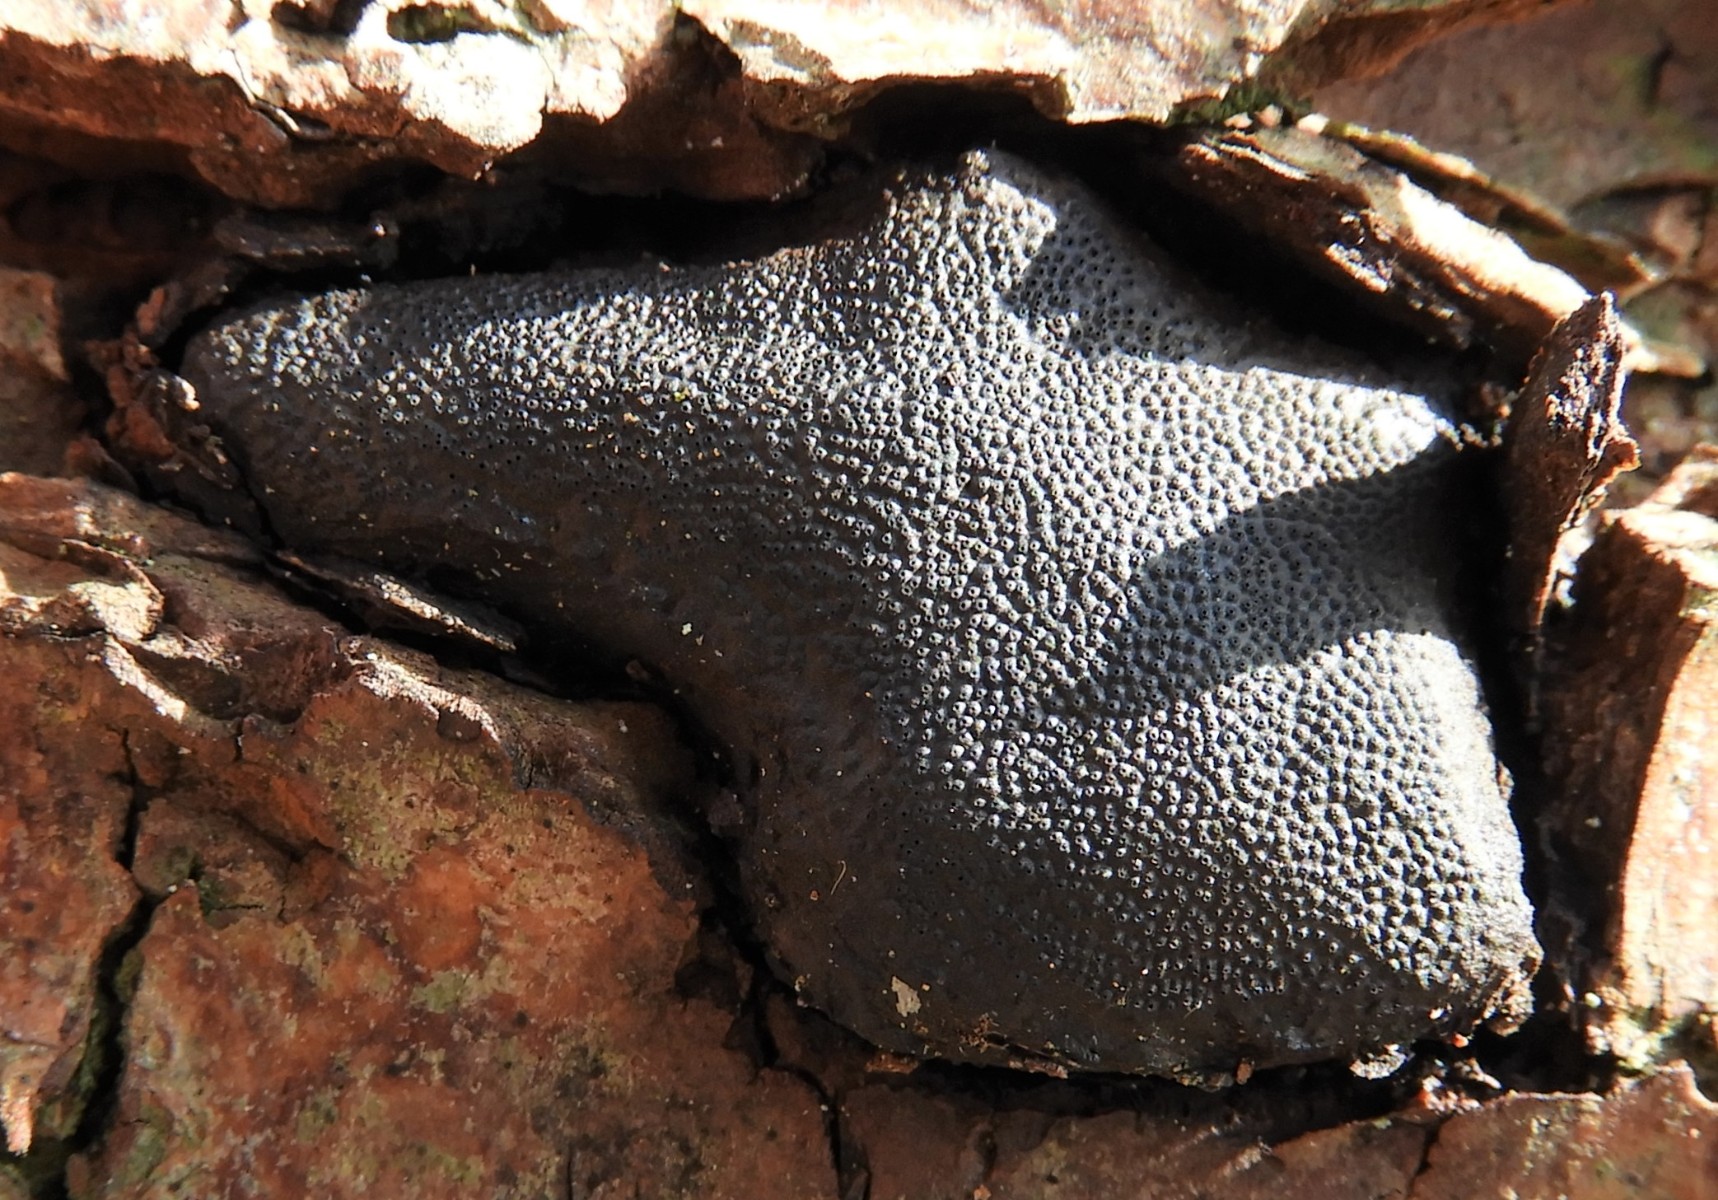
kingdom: Fungi
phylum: Ascomycota
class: Sordariomycetes
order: Boliniales
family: Boliniaceae
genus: Camarops
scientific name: Camarops polysperma
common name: elle-kulsnegl
